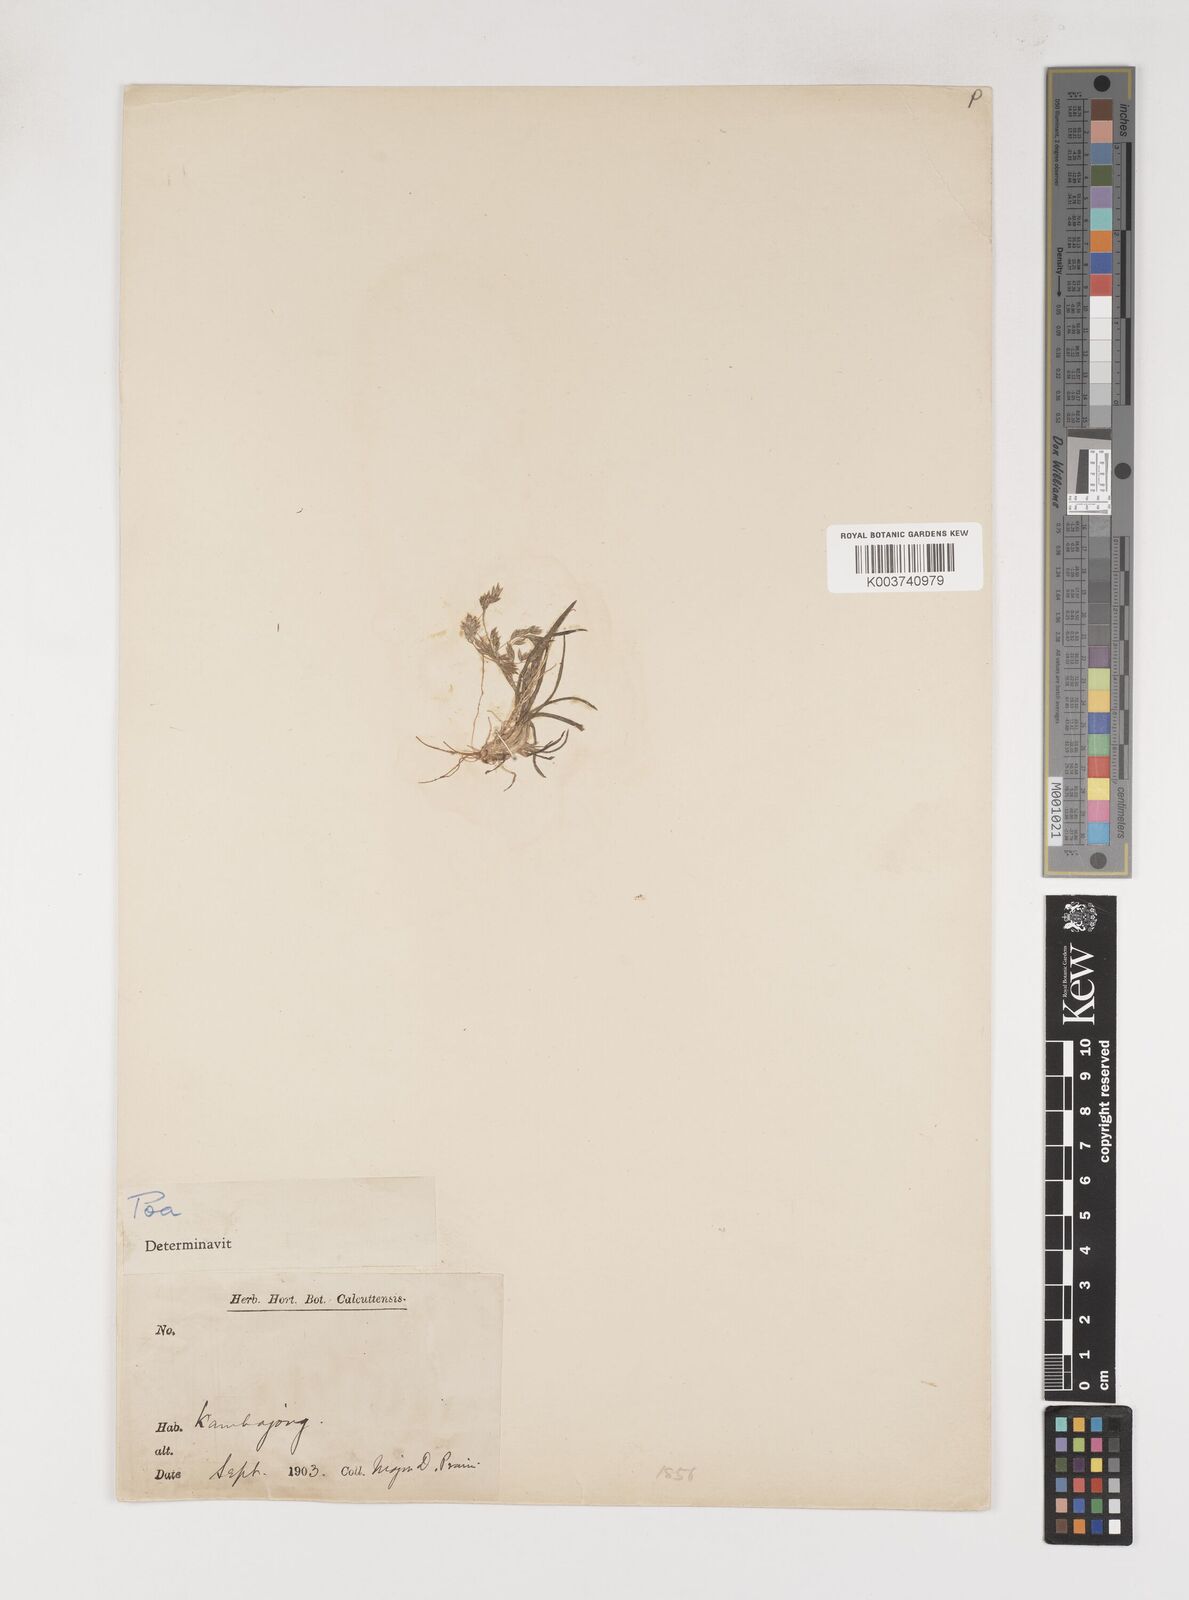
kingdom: Plantae
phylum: Tracheophyta
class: Liliopsida
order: Poales
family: Poaceae
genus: Poa
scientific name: Poa pagophila
